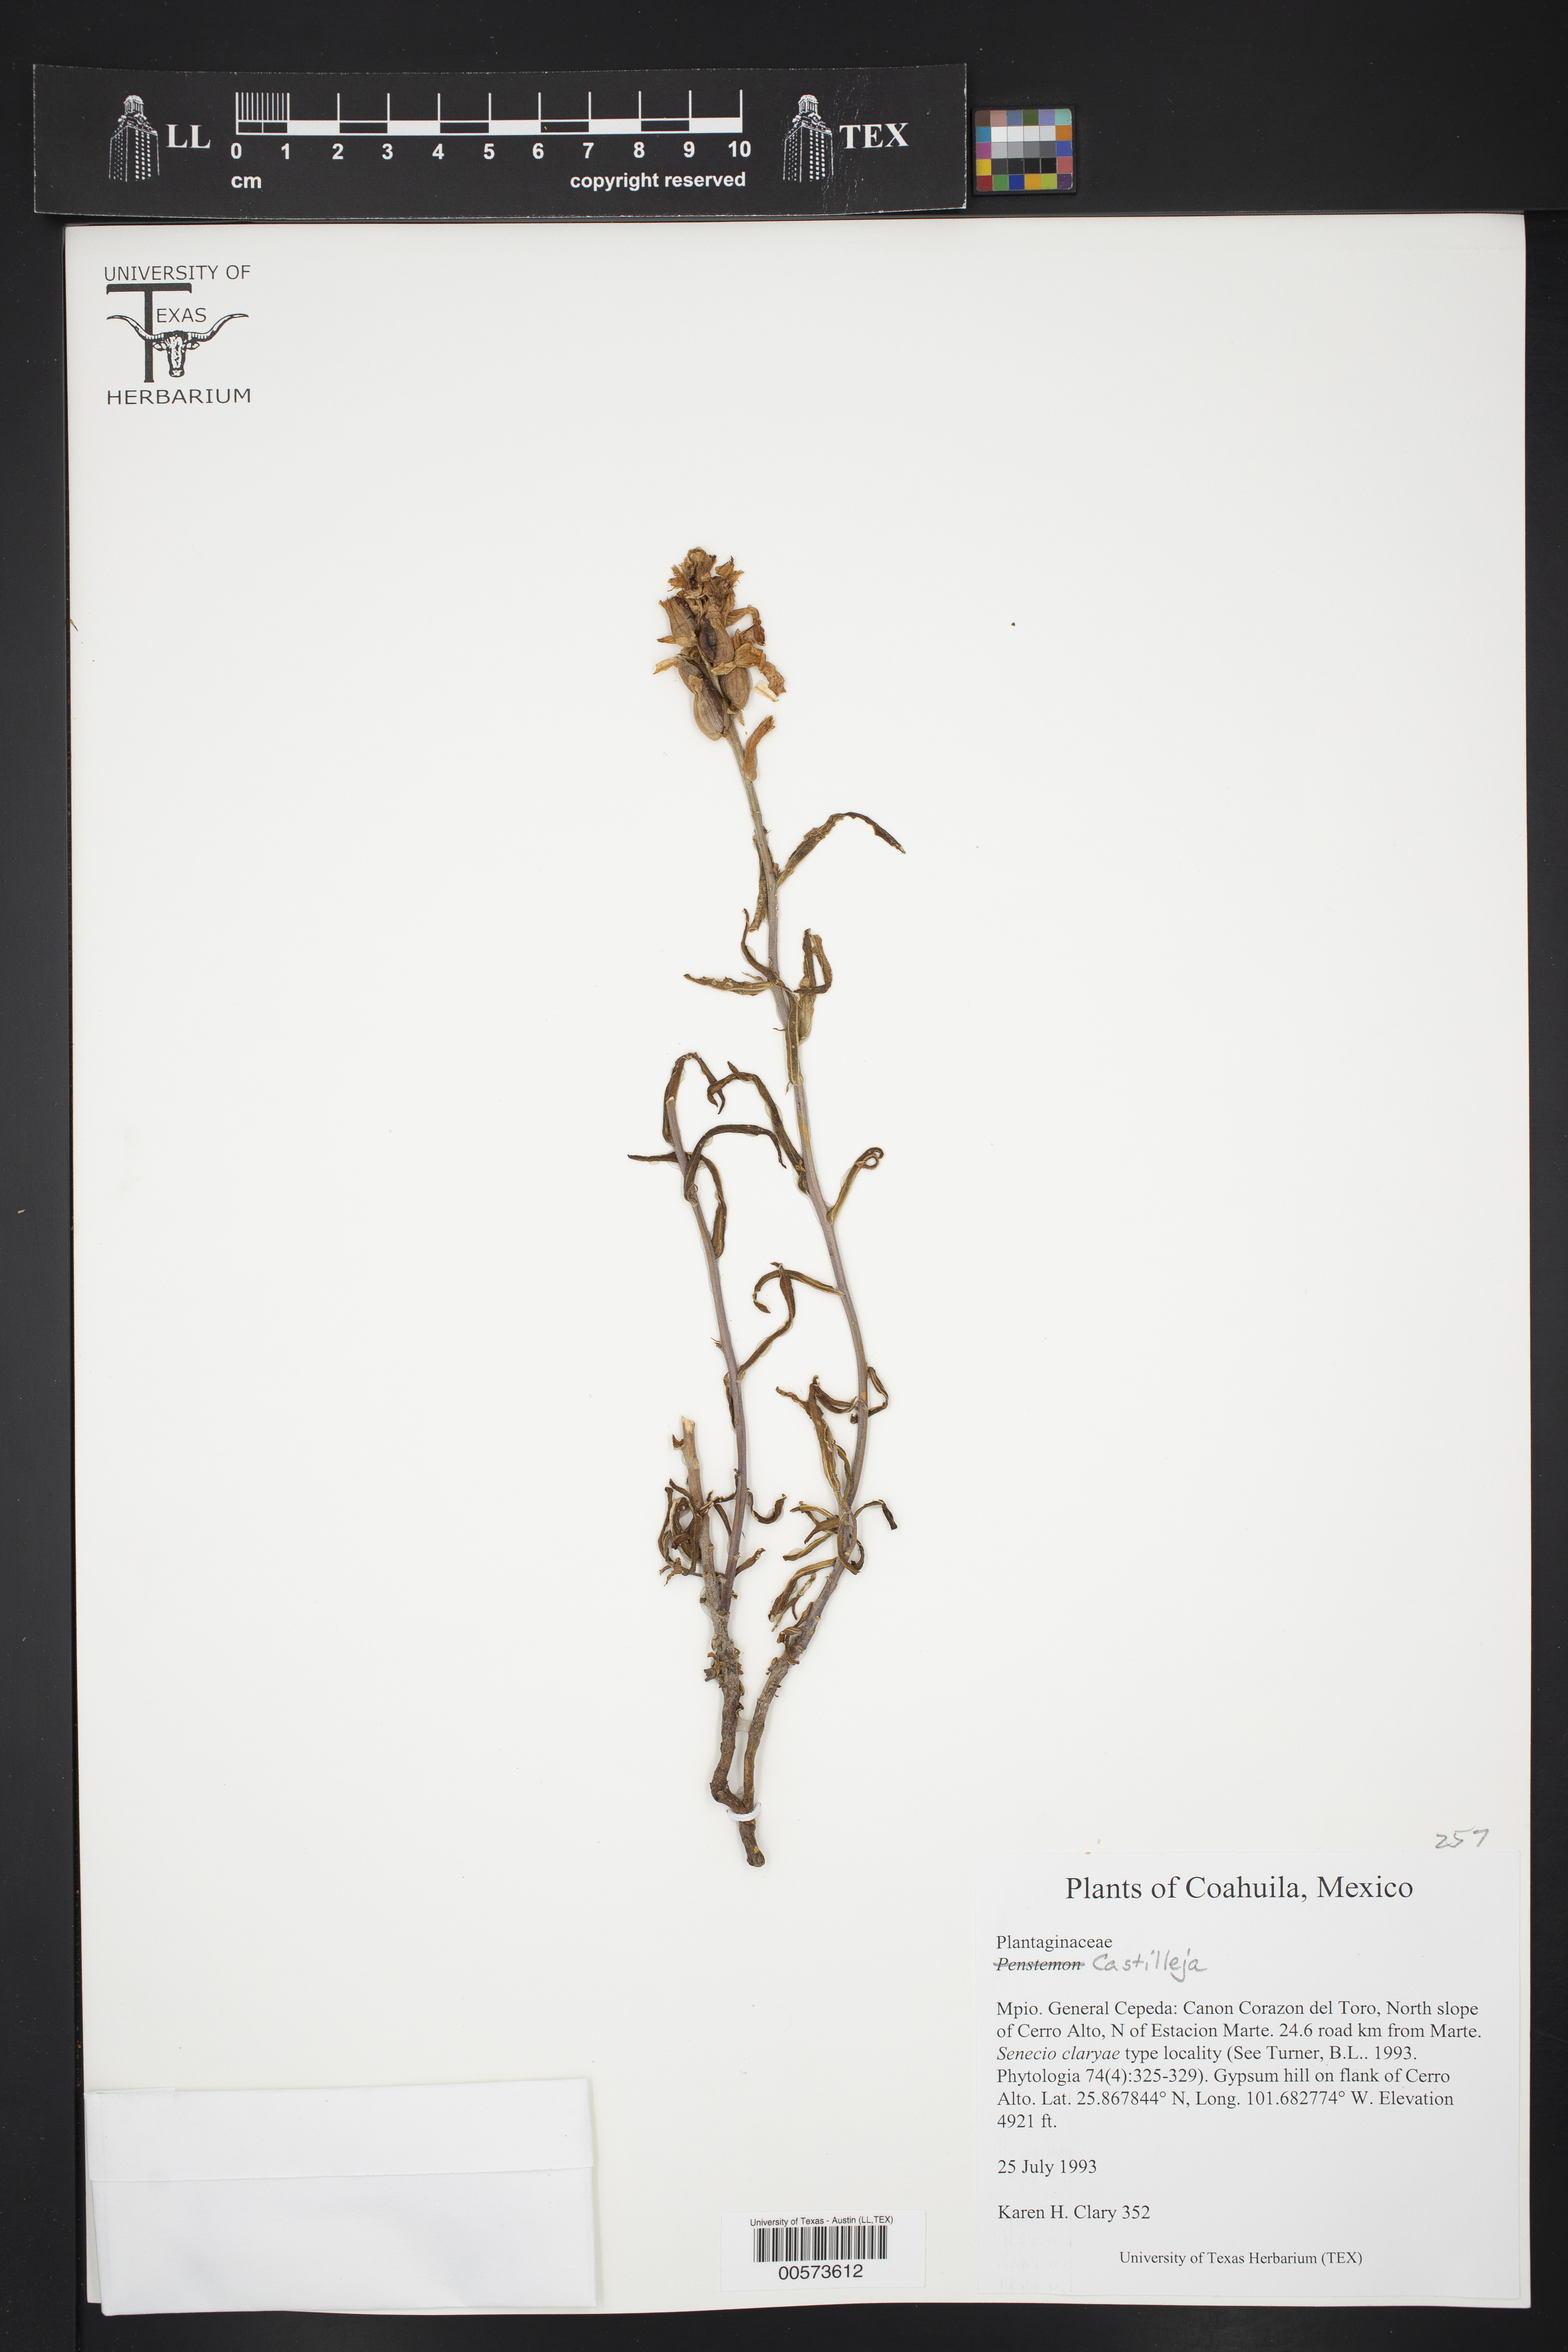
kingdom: Plantae
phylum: Tracheophyta
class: Magnoliopsida
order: Lamiales
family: Orobanchaceae
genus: Castilleja
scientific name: Castilleja
